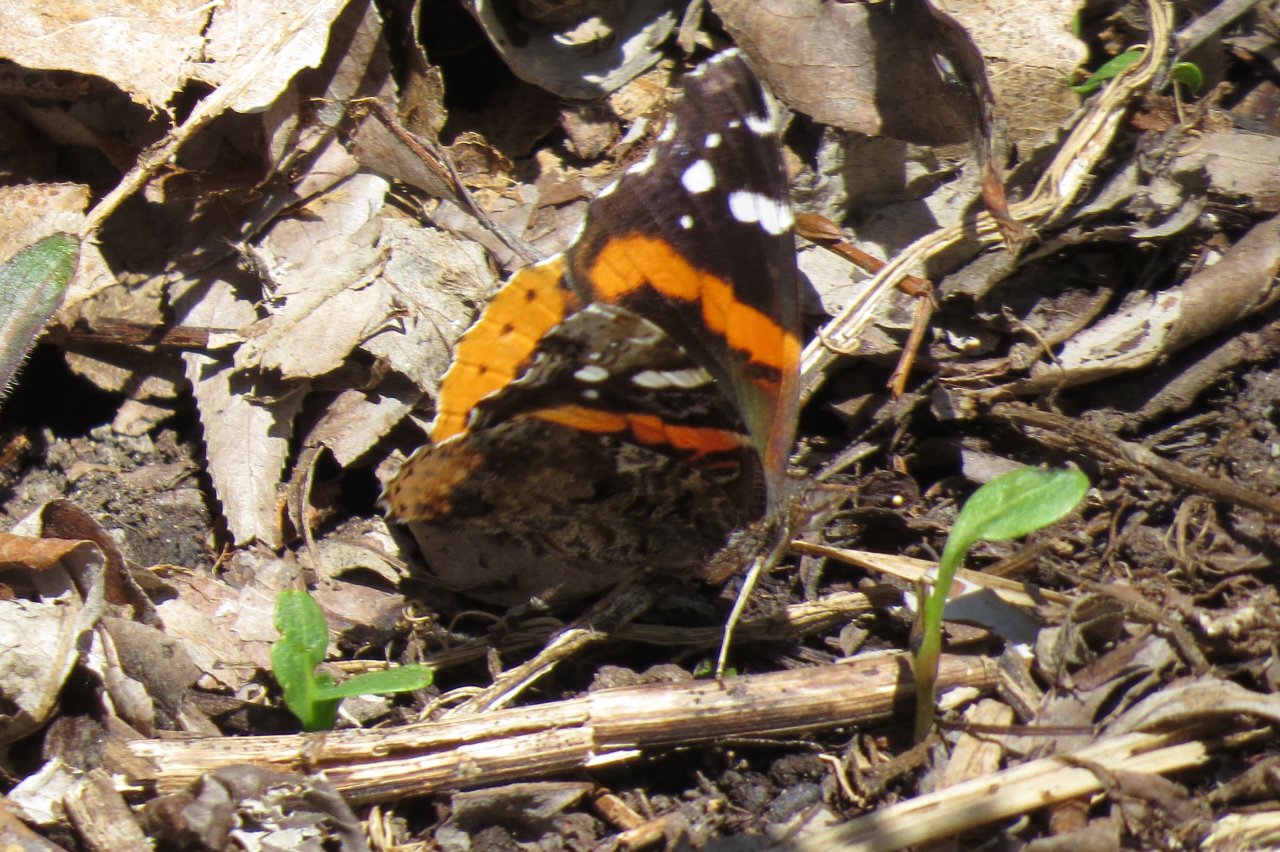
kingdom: Animalia
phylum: Arthropoda
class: Insecta
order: Lepidoptera
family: Nymphalidae
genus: Vanessa
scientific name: Vanessa atalanta
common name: Red Admiral
